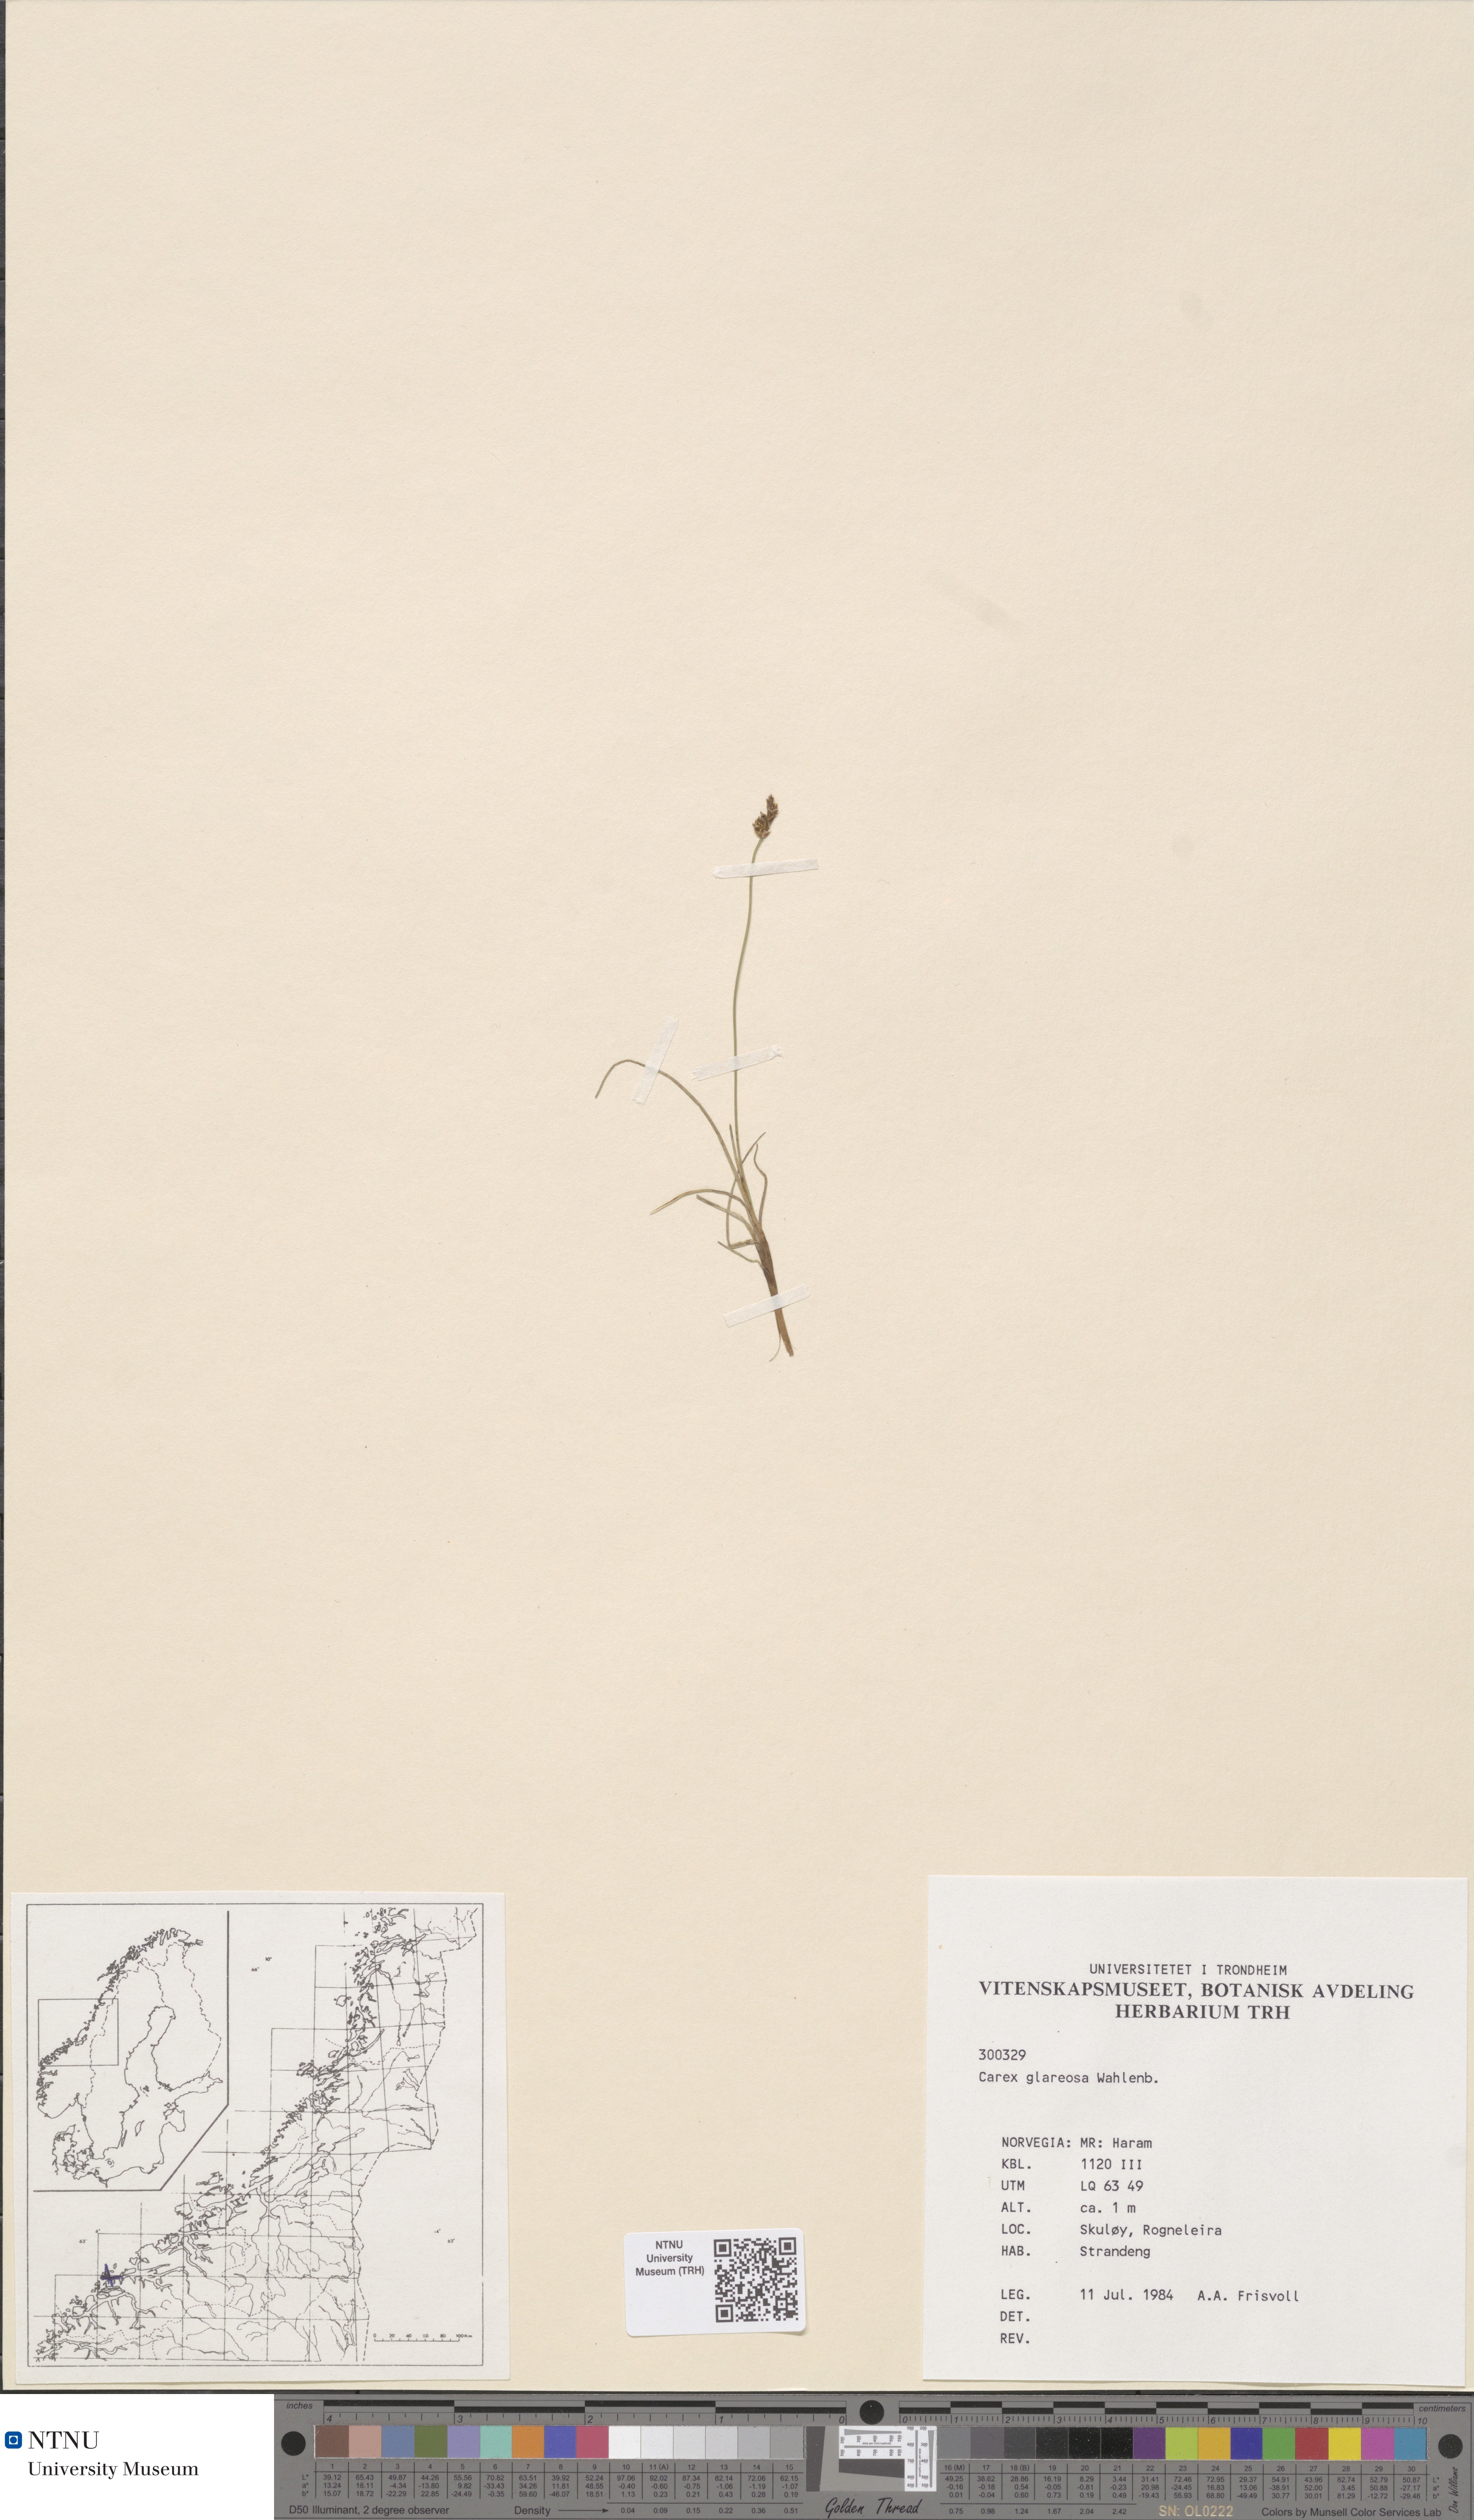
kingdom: Plantae
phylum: Tracheophyta
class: Liliopsida
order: Poales
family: Cyperaceae
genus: Carex
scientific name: Carex glareosa
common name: Clustered sedge
